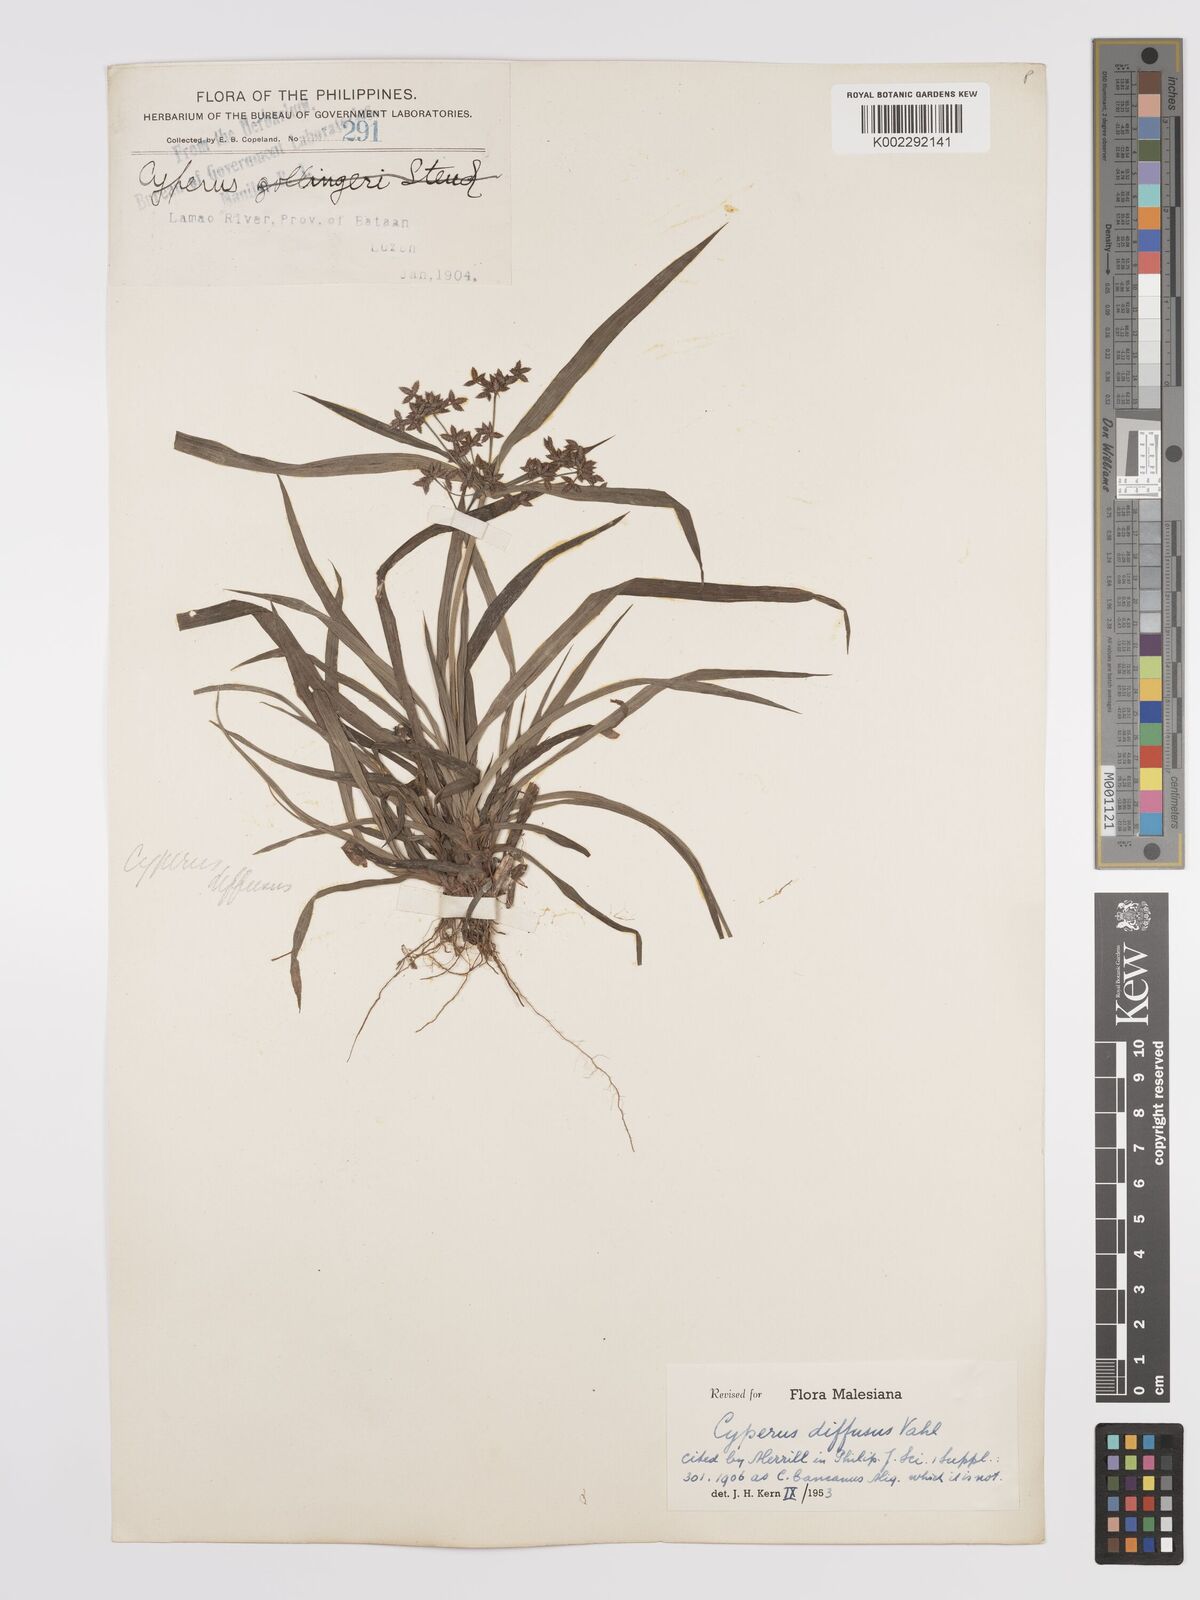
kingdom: Plantae
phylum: Tracheophyta
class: Liliopsida
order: Poales
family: Cyperaceae
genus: Cyperus
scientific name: Cyperus diffusus
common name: Dwarf umbrella grass
